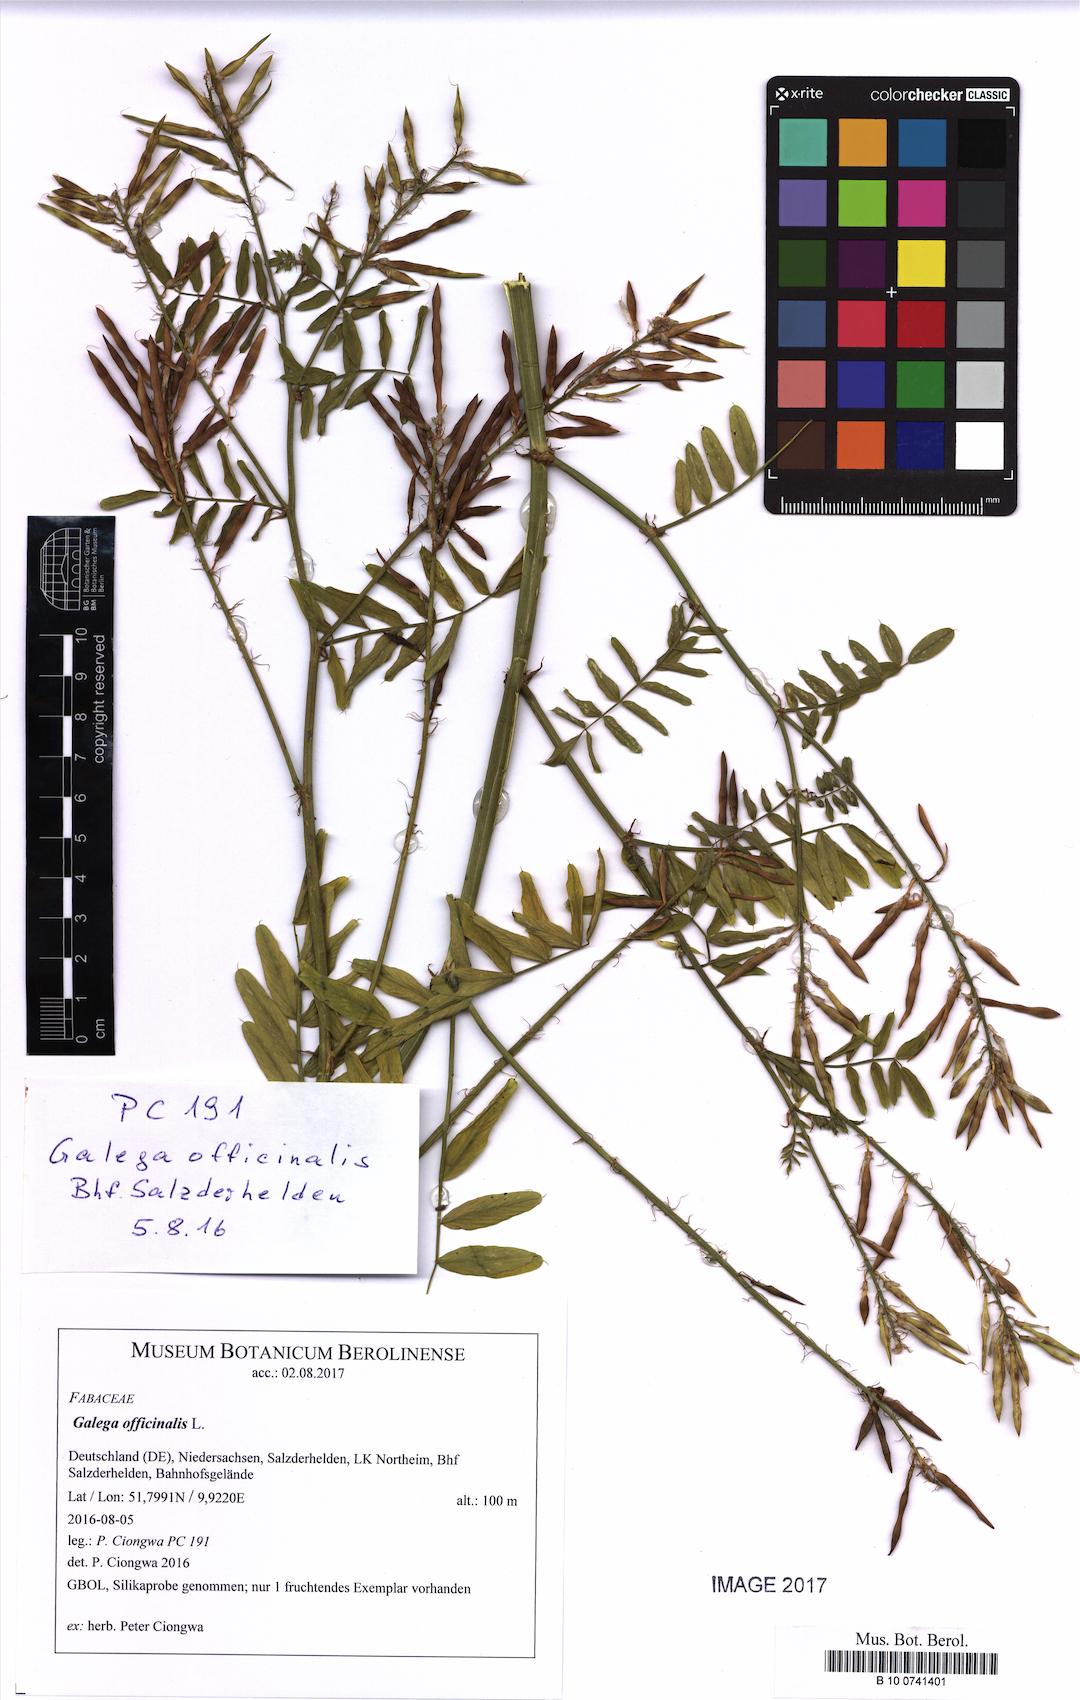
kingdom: Plantae
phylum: Tracheophyta
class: Magnoliopsida
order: Fabales
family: Fabaceae
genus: Galega
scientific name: Galega officinalis
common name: Goat's-rue
